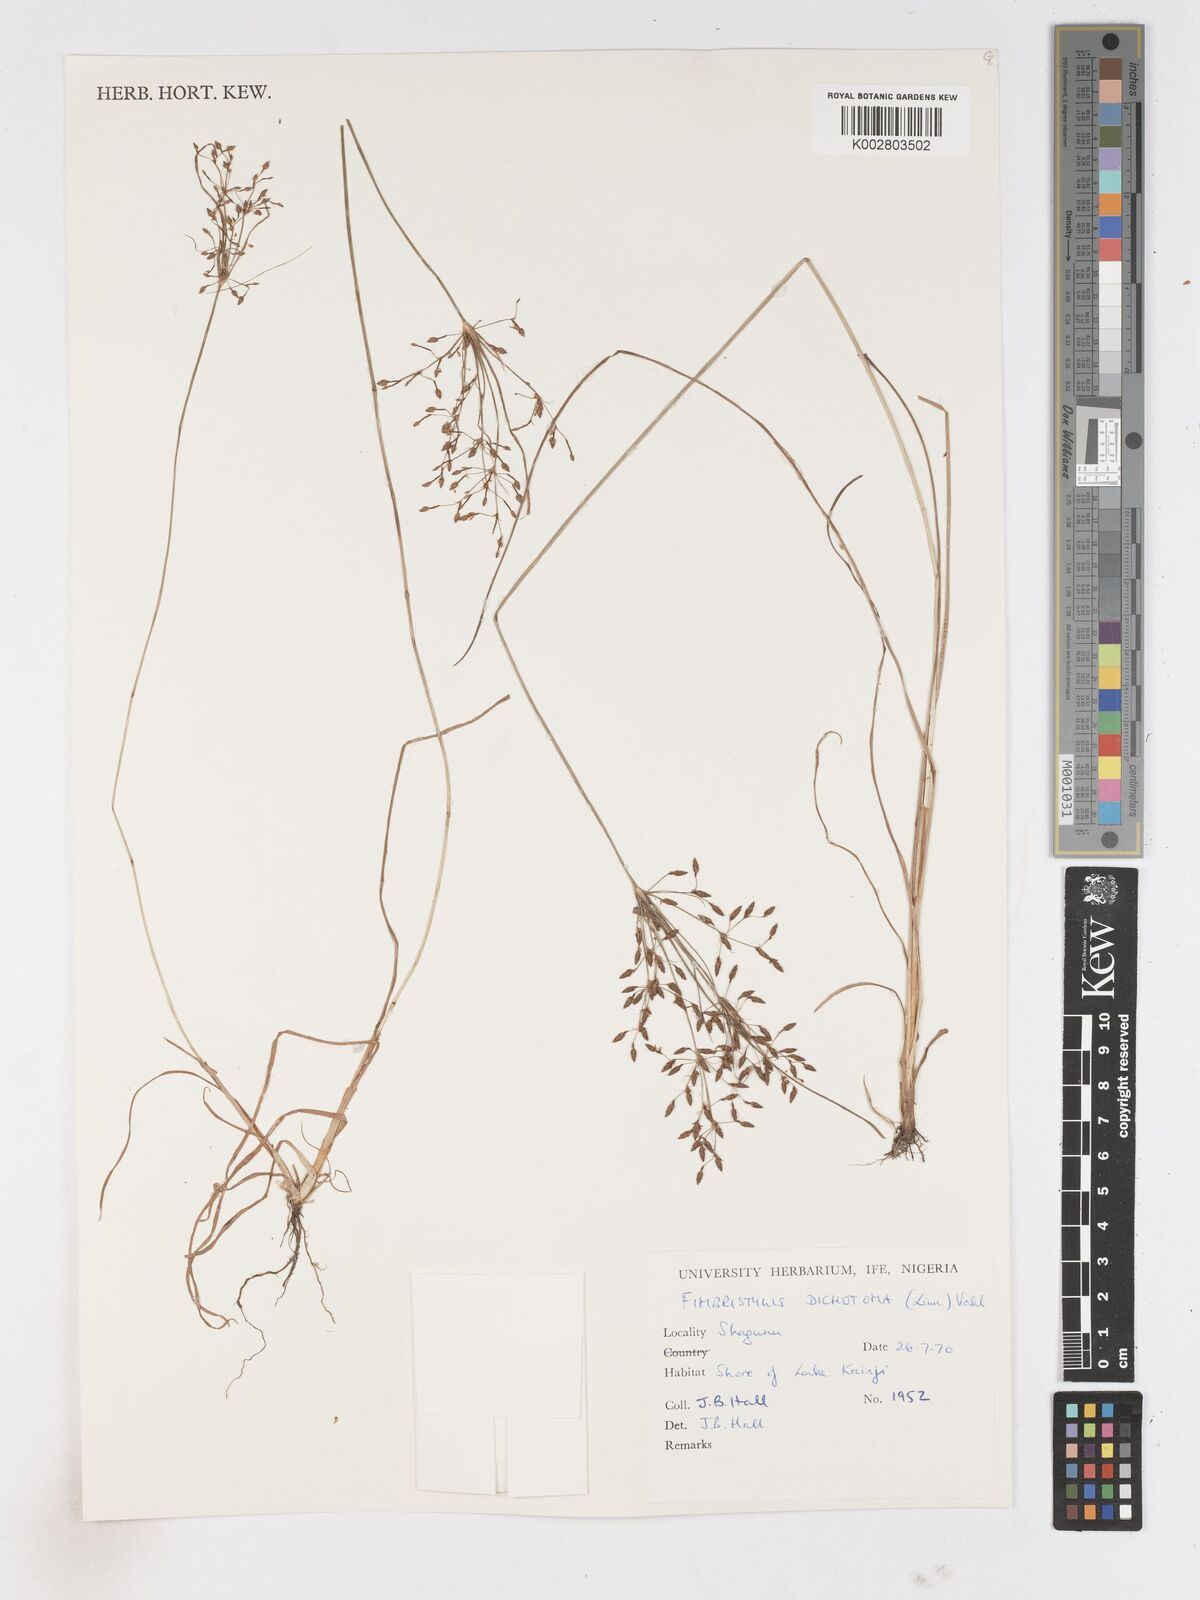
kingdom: Plantae
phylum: Tracheophyta
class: Liliopsida
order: Poales
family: Cyperaceae
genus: Fimbristylis
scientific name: Fimbristylis dichotoma
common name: Forked fimbry
